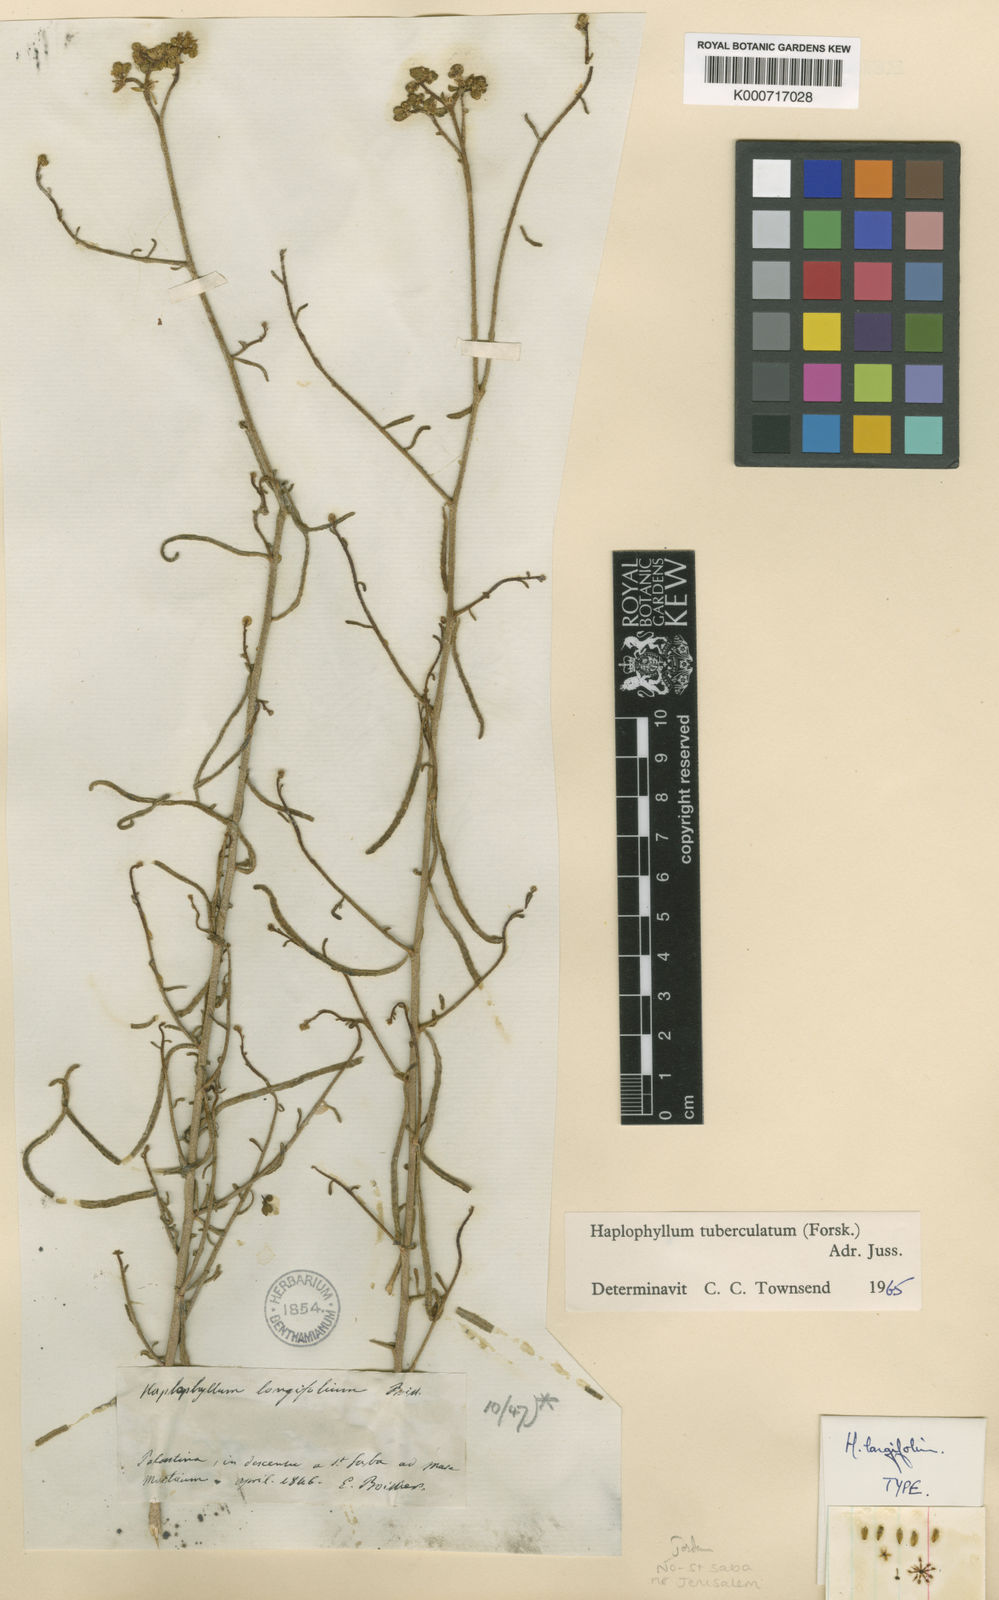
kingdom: Plantae
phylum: Tracheophyta
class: Magnoliopsida
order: Sapindales
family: Rutaceae
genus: Haplophyllum
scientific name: Haplophyllum tuberculatum
